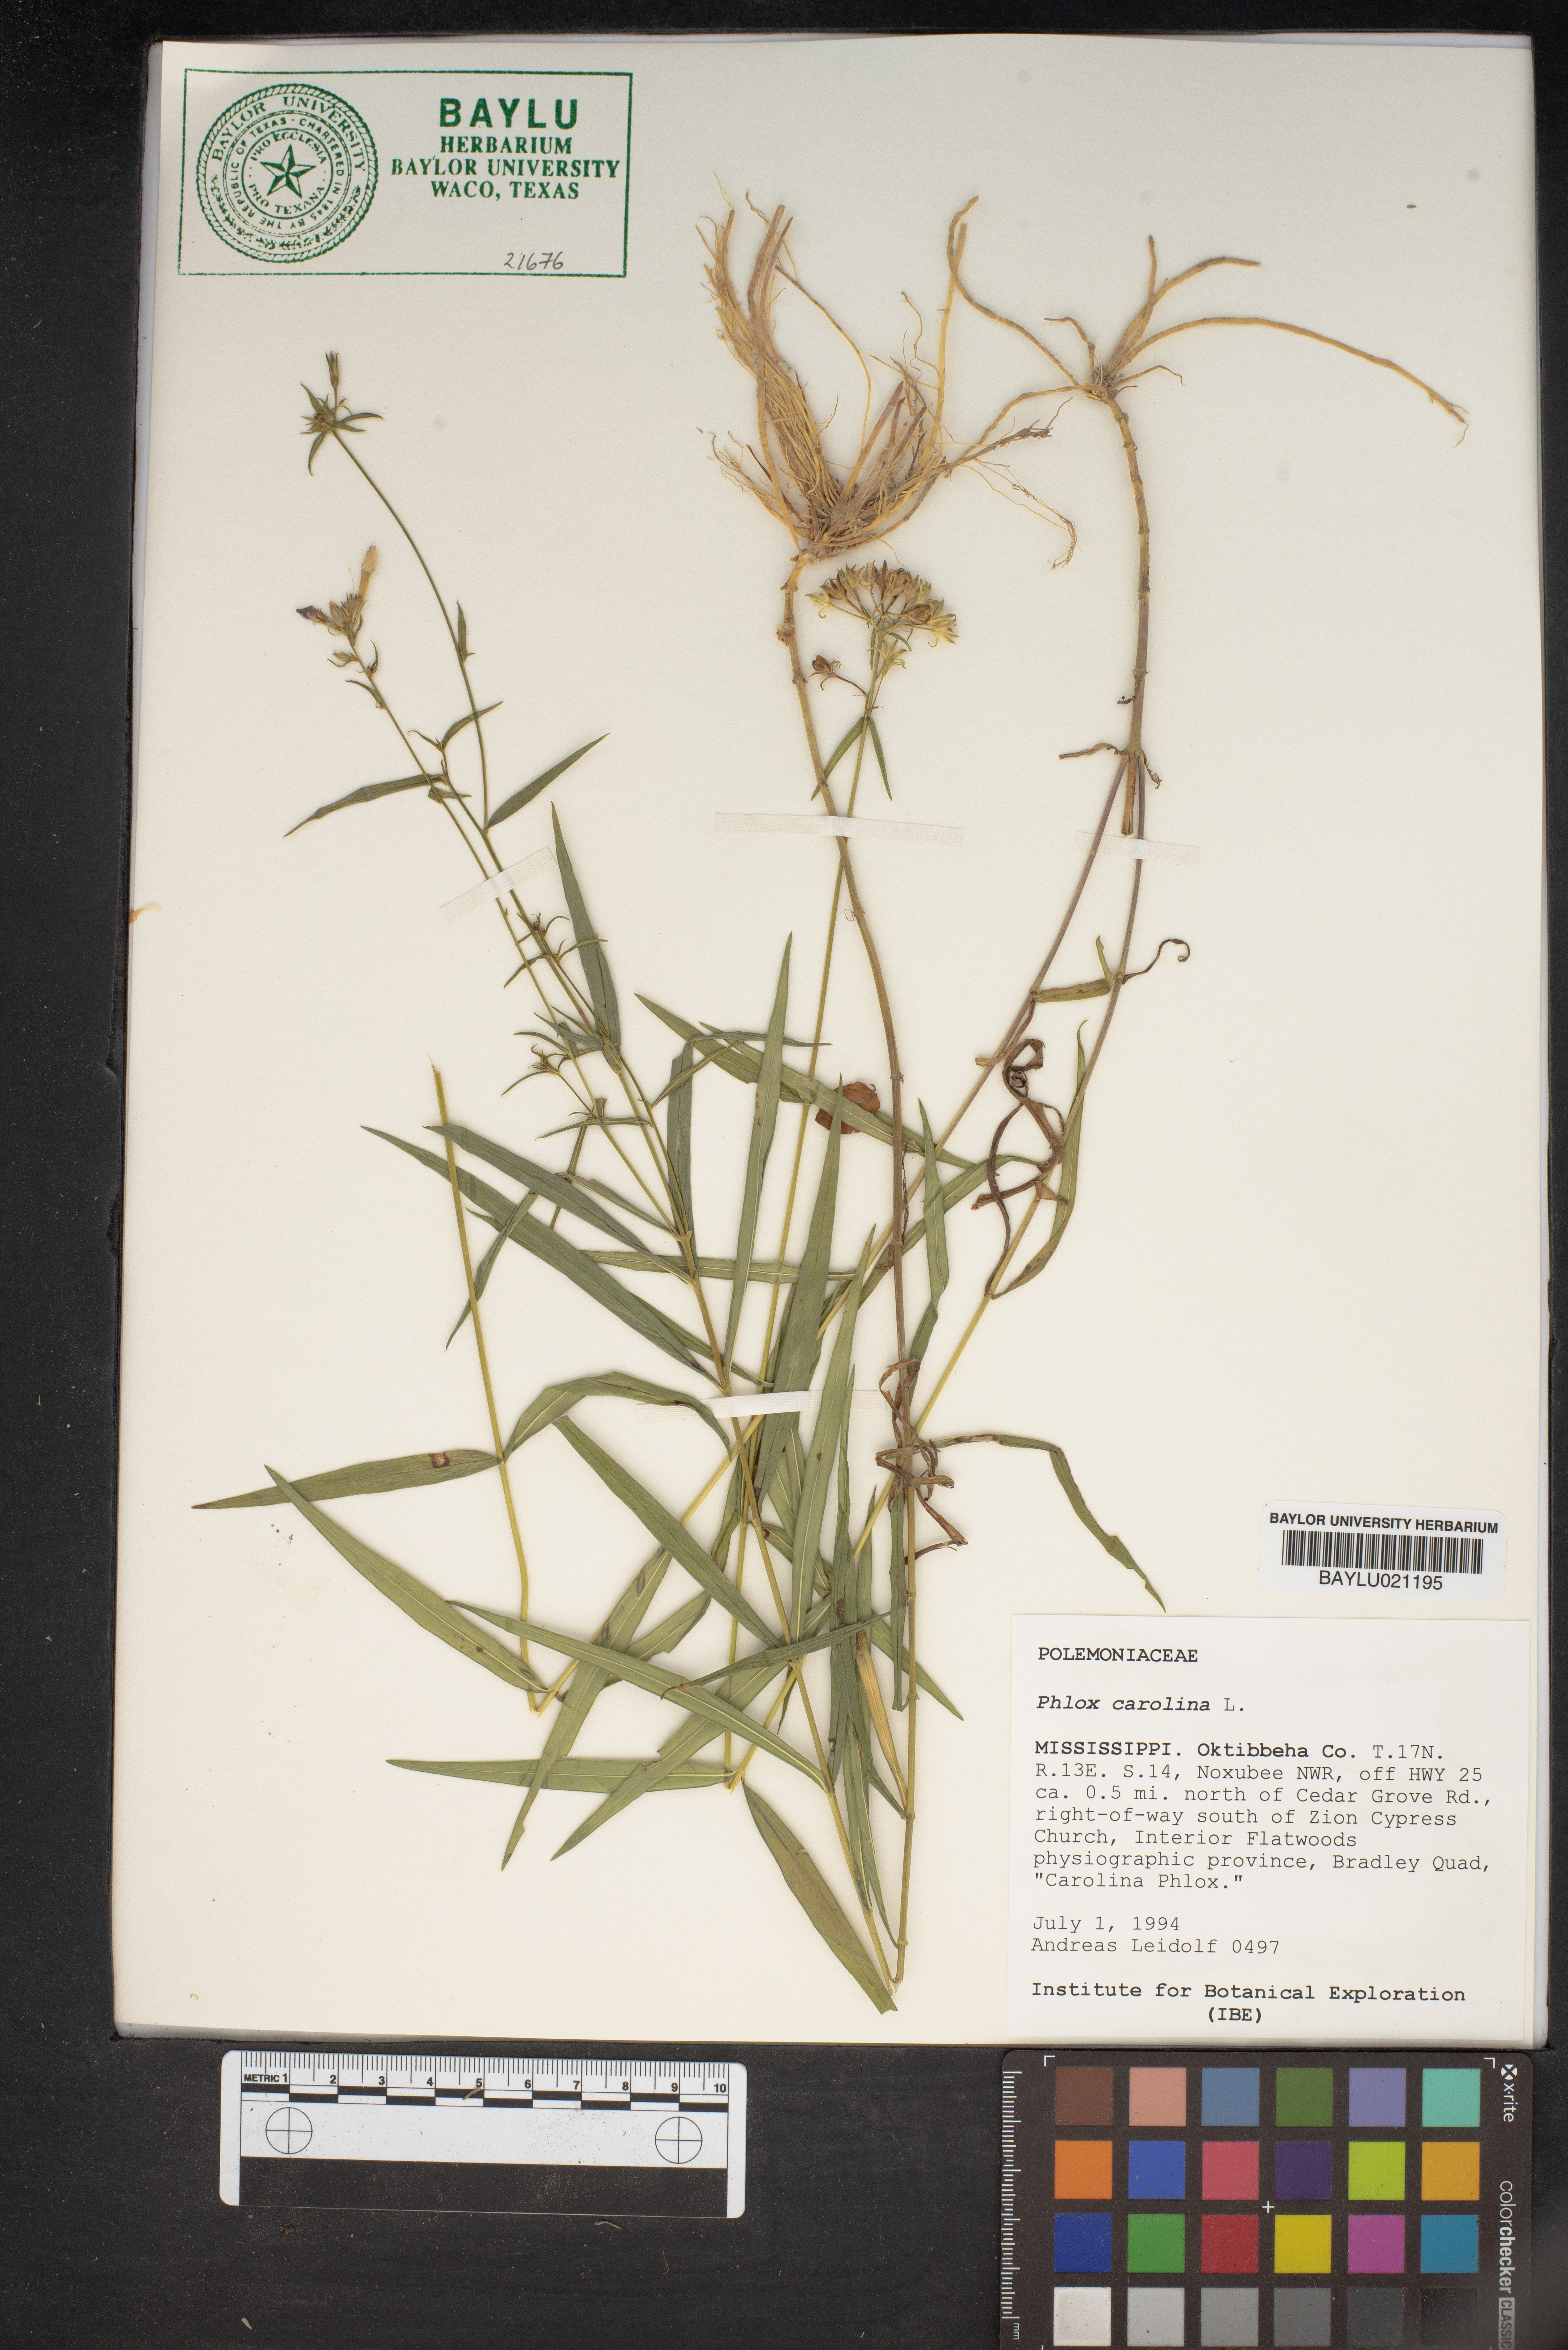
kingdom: Plantae
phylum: Tracheophyta
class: Magnoliopsida
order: Ericales
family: Polemoniaceae
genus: Phlox
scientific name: Phlox carolina
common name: Thick-leaf phlox
